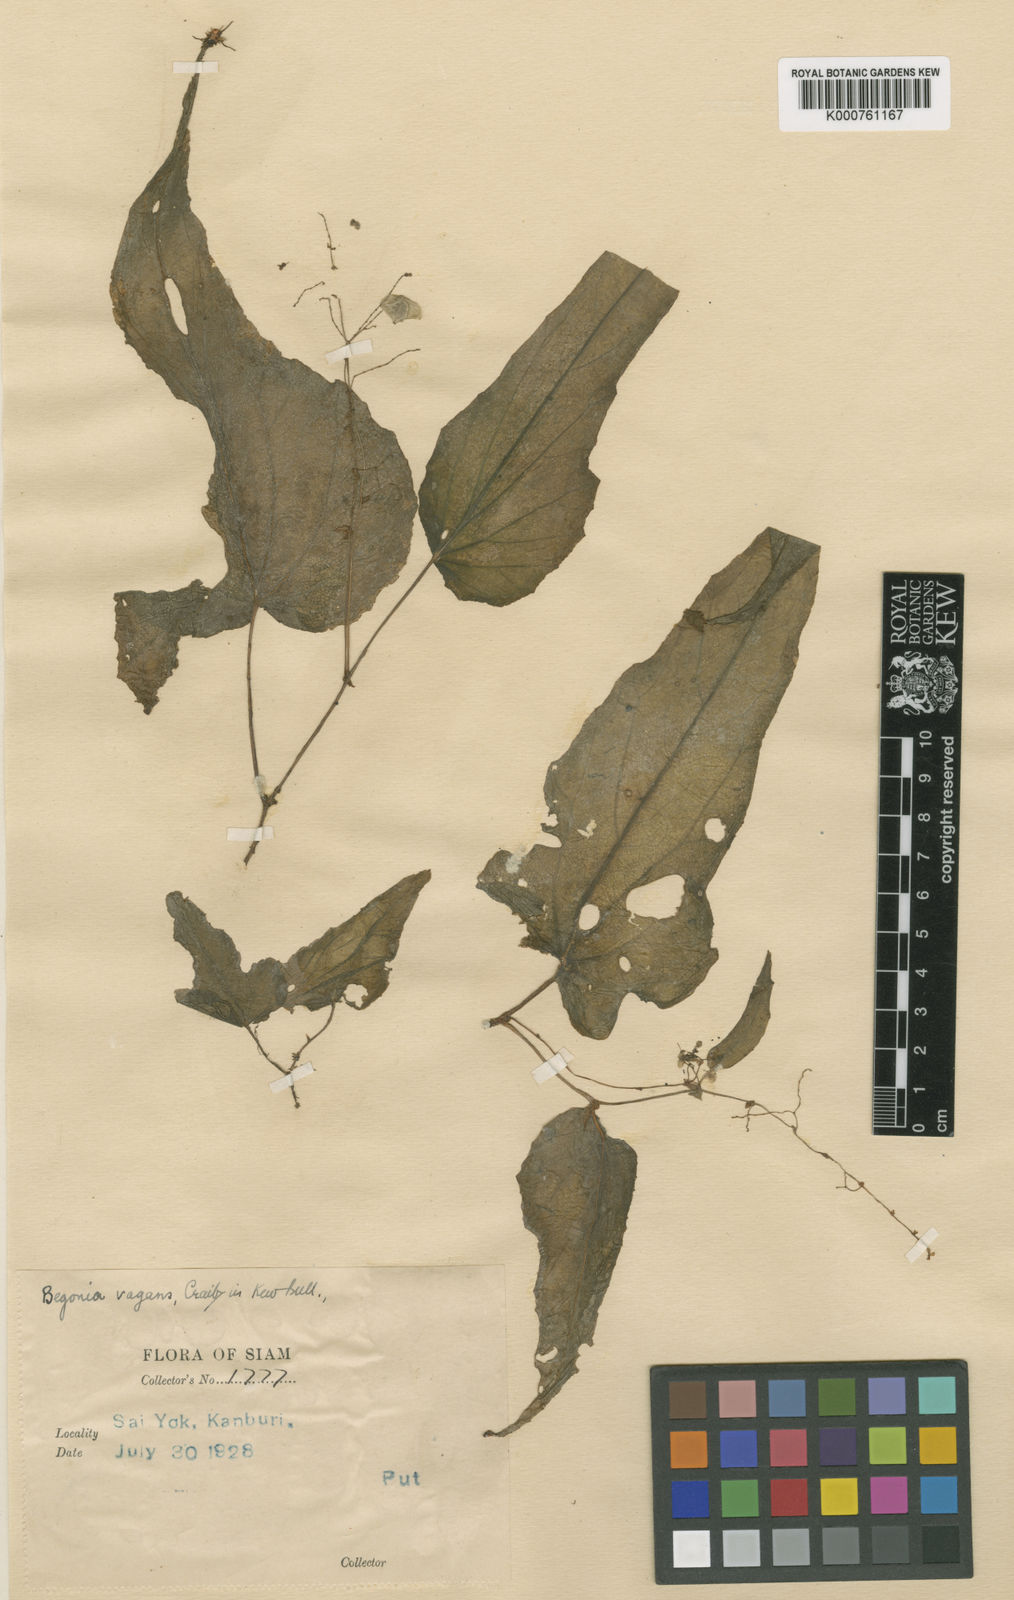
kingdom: Plantae
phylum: Tracheophyta
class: Magnoliopsida
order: Cucurbitales
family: Begoniaceae
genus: Begonia
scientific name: Begonia vagans
